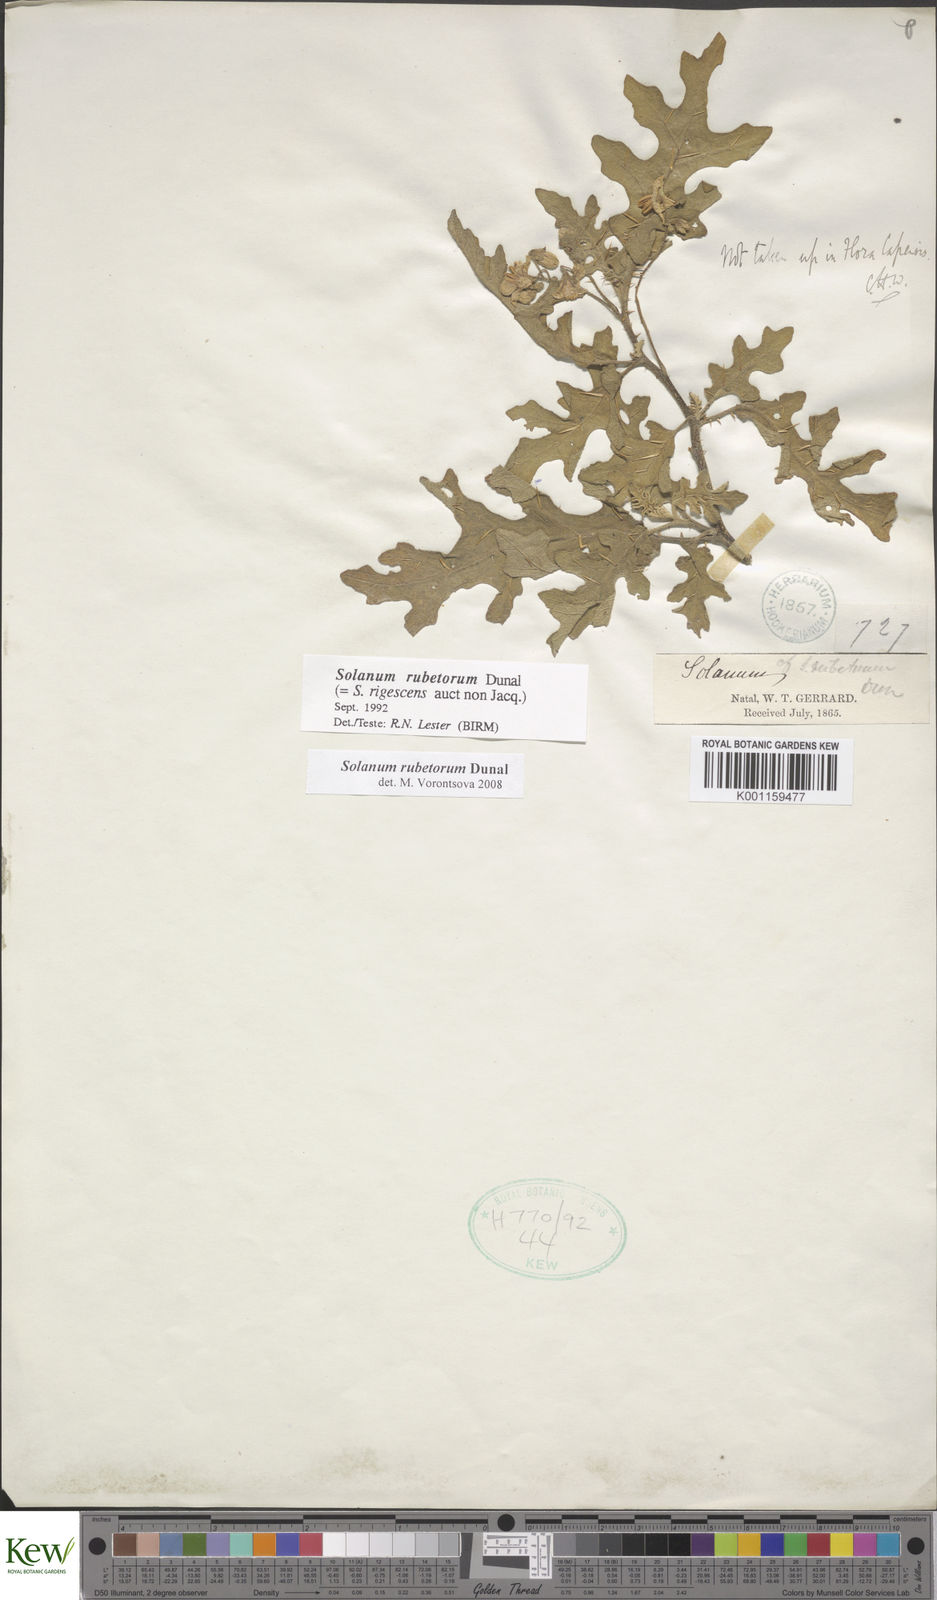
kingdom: Plantae
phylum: Tracheophyta
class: Magnoliopsida
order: Solanales
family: Solanaceae
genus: Solanum
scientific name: Solanum rubetorum
